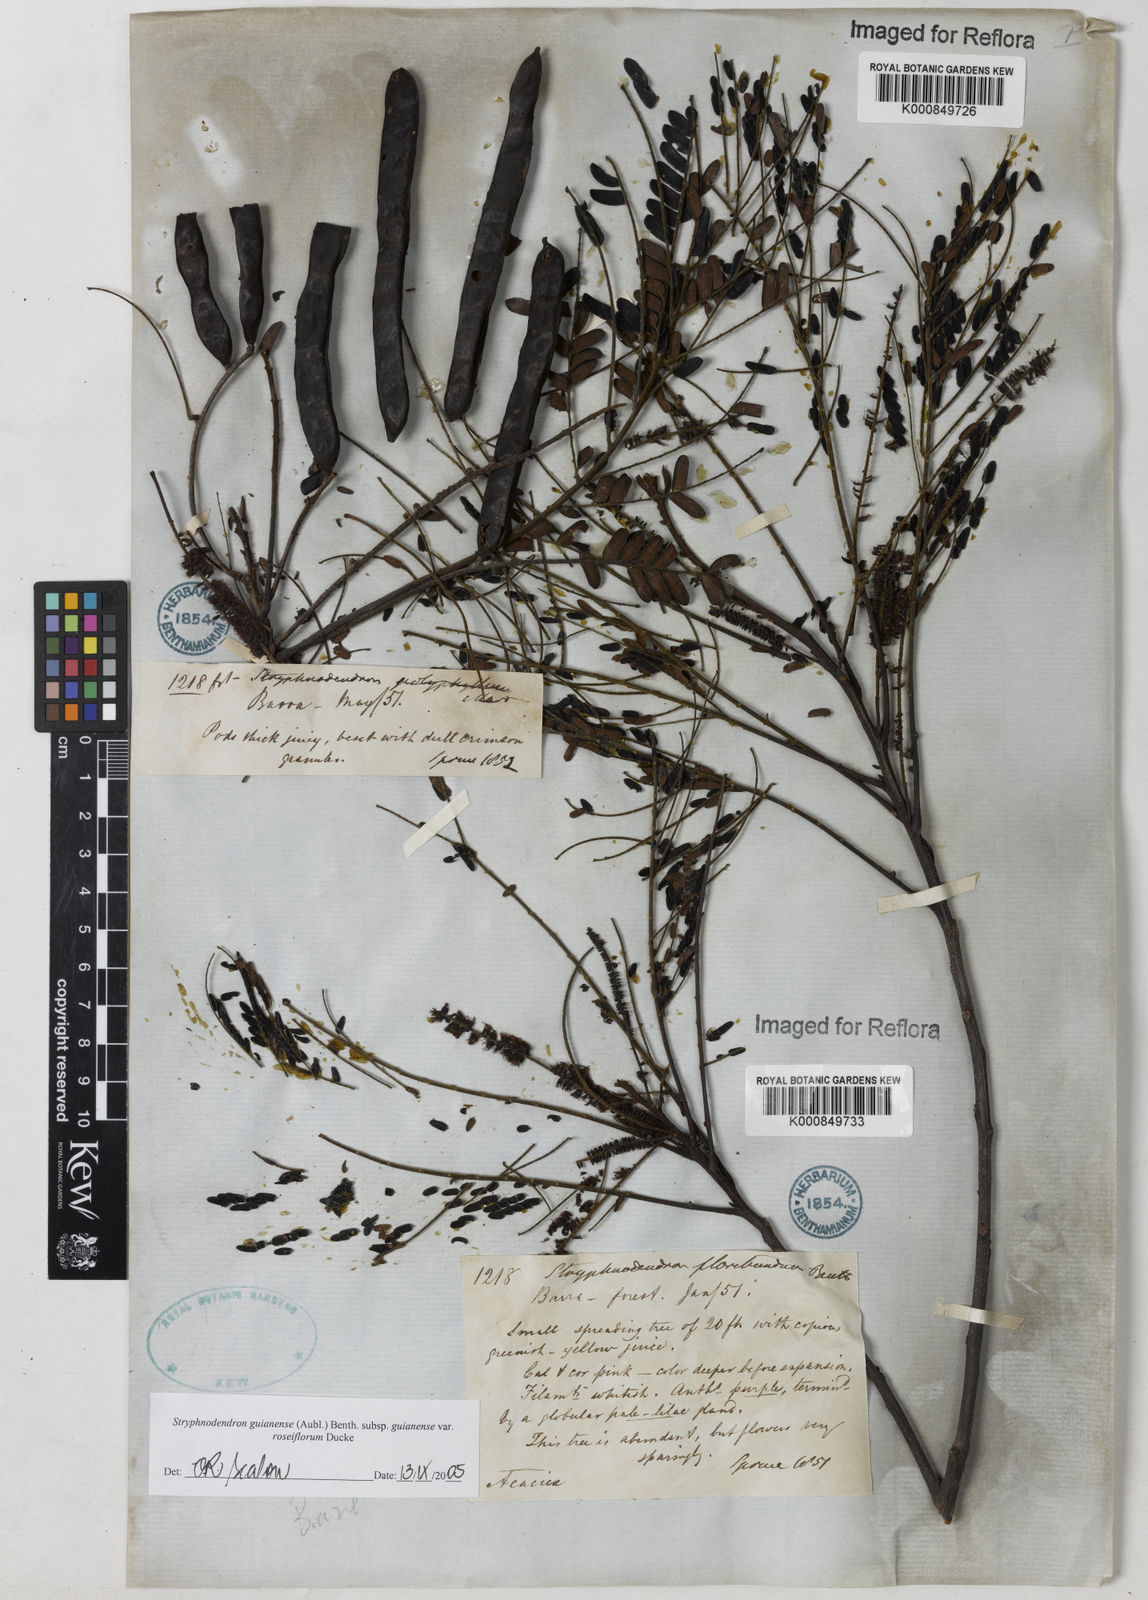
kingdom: Plantae
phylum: Tracheophyta
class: Magnoliopsida
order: Fabales
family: Fabaceae
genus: Stryphnodendron
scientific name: Stryphnodendron guianense
